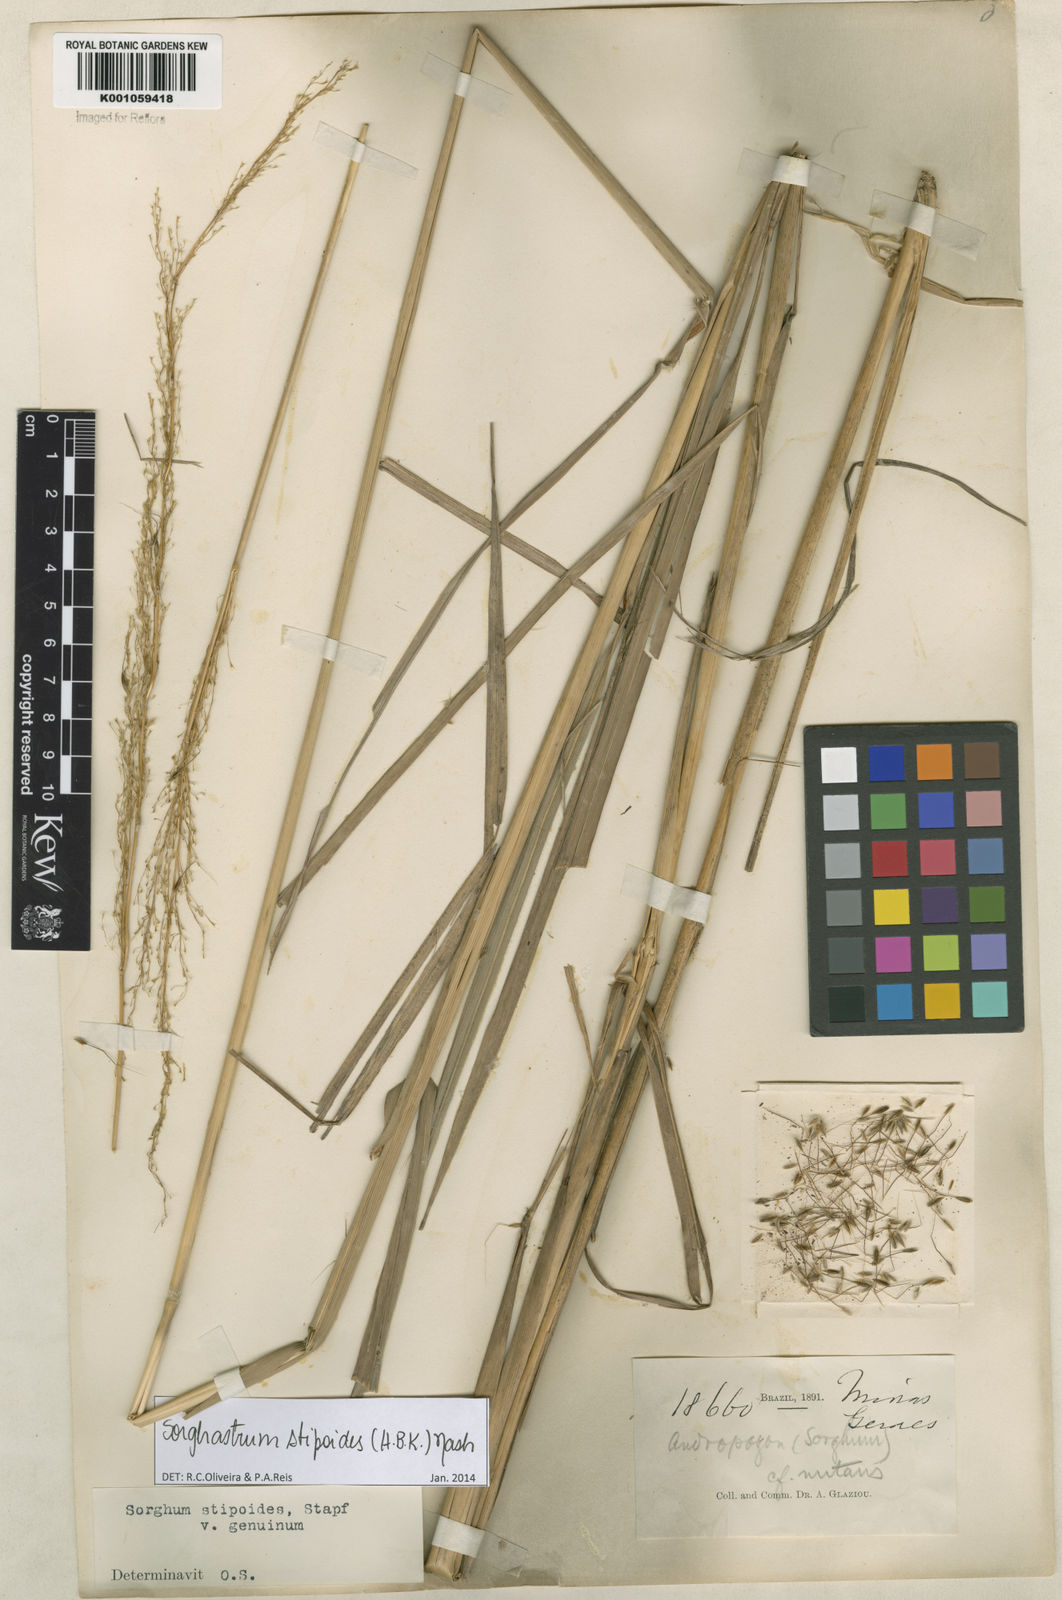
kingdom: Plantae
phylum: Tracheophyta
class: Liliopsida
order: Poales
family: Poaceae
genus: Sorghastrum
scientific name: Sorghastrum stipoides
